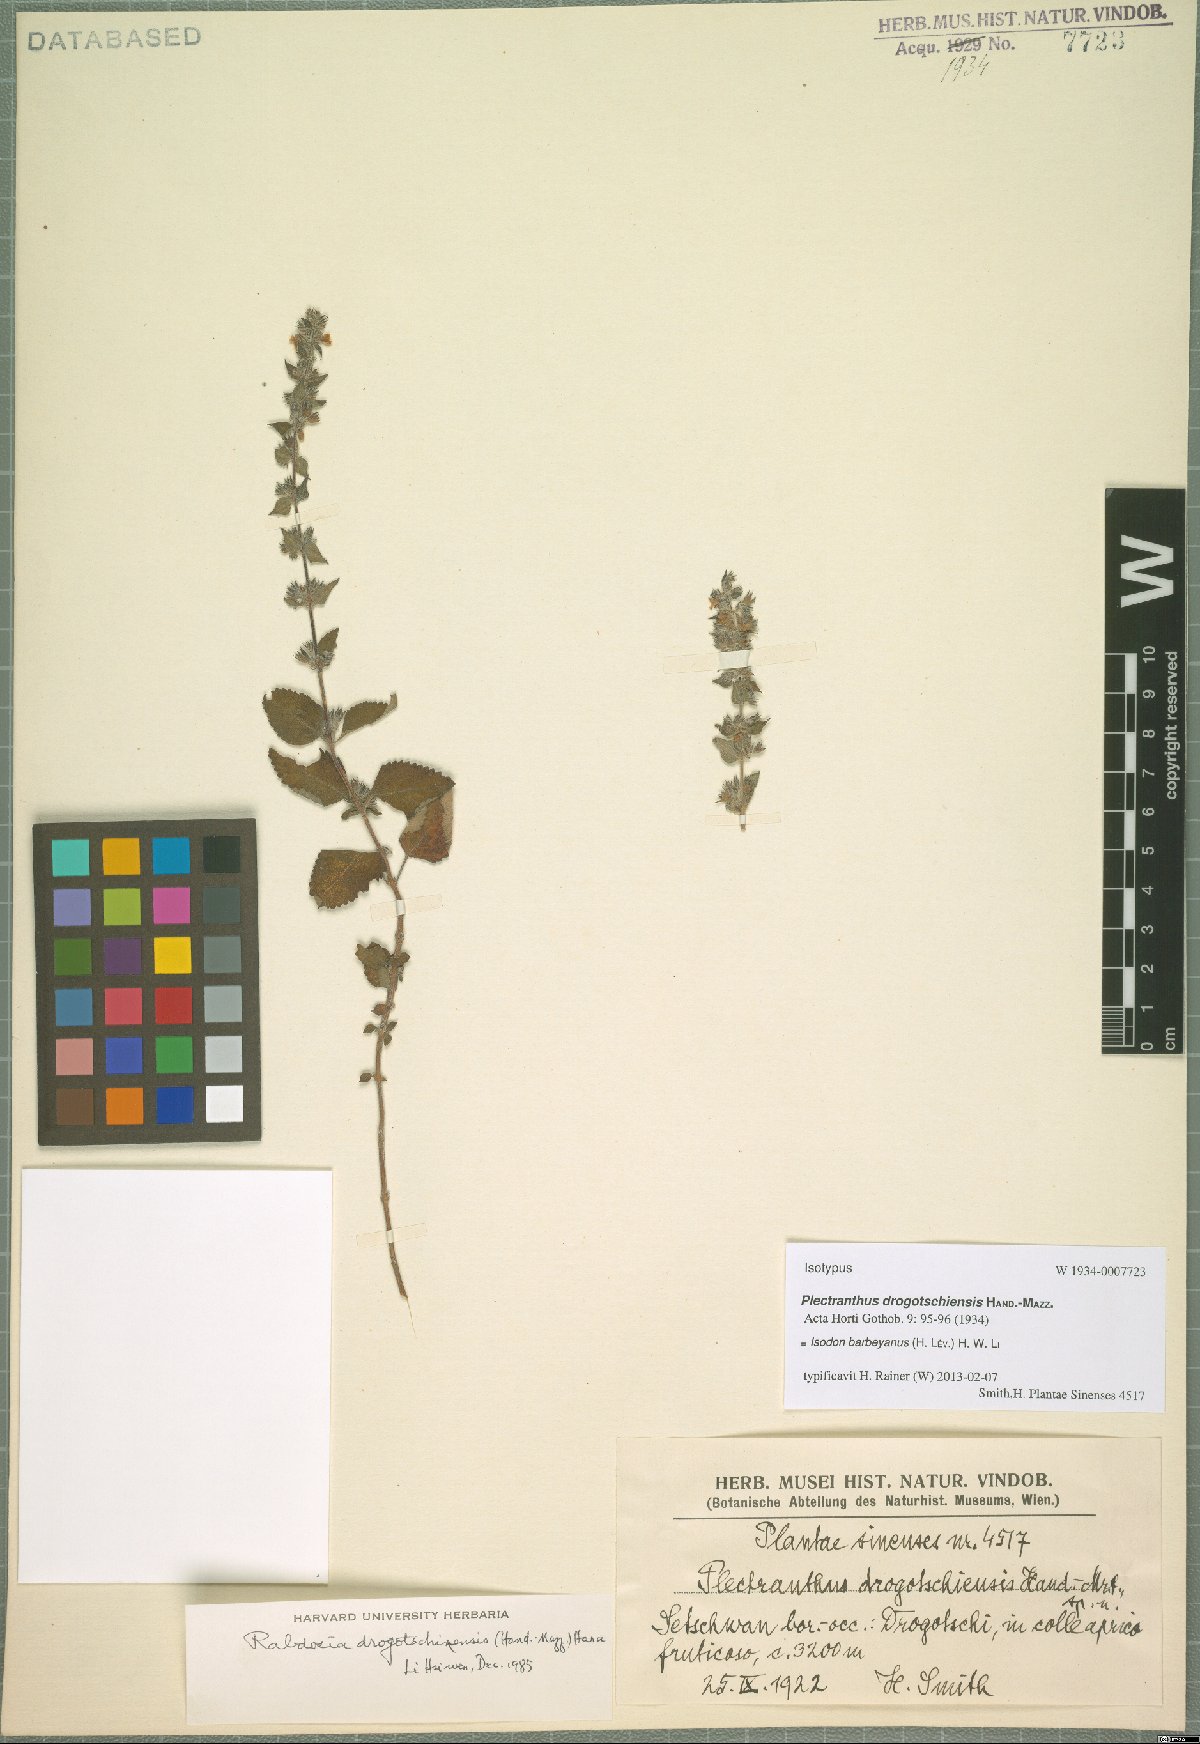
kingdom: Plantae
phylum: Tracheophyta
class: Magnoliopsida
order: Lamiales
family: Lamiaceae
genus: Isodon
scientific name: Isodon barbeyanus
